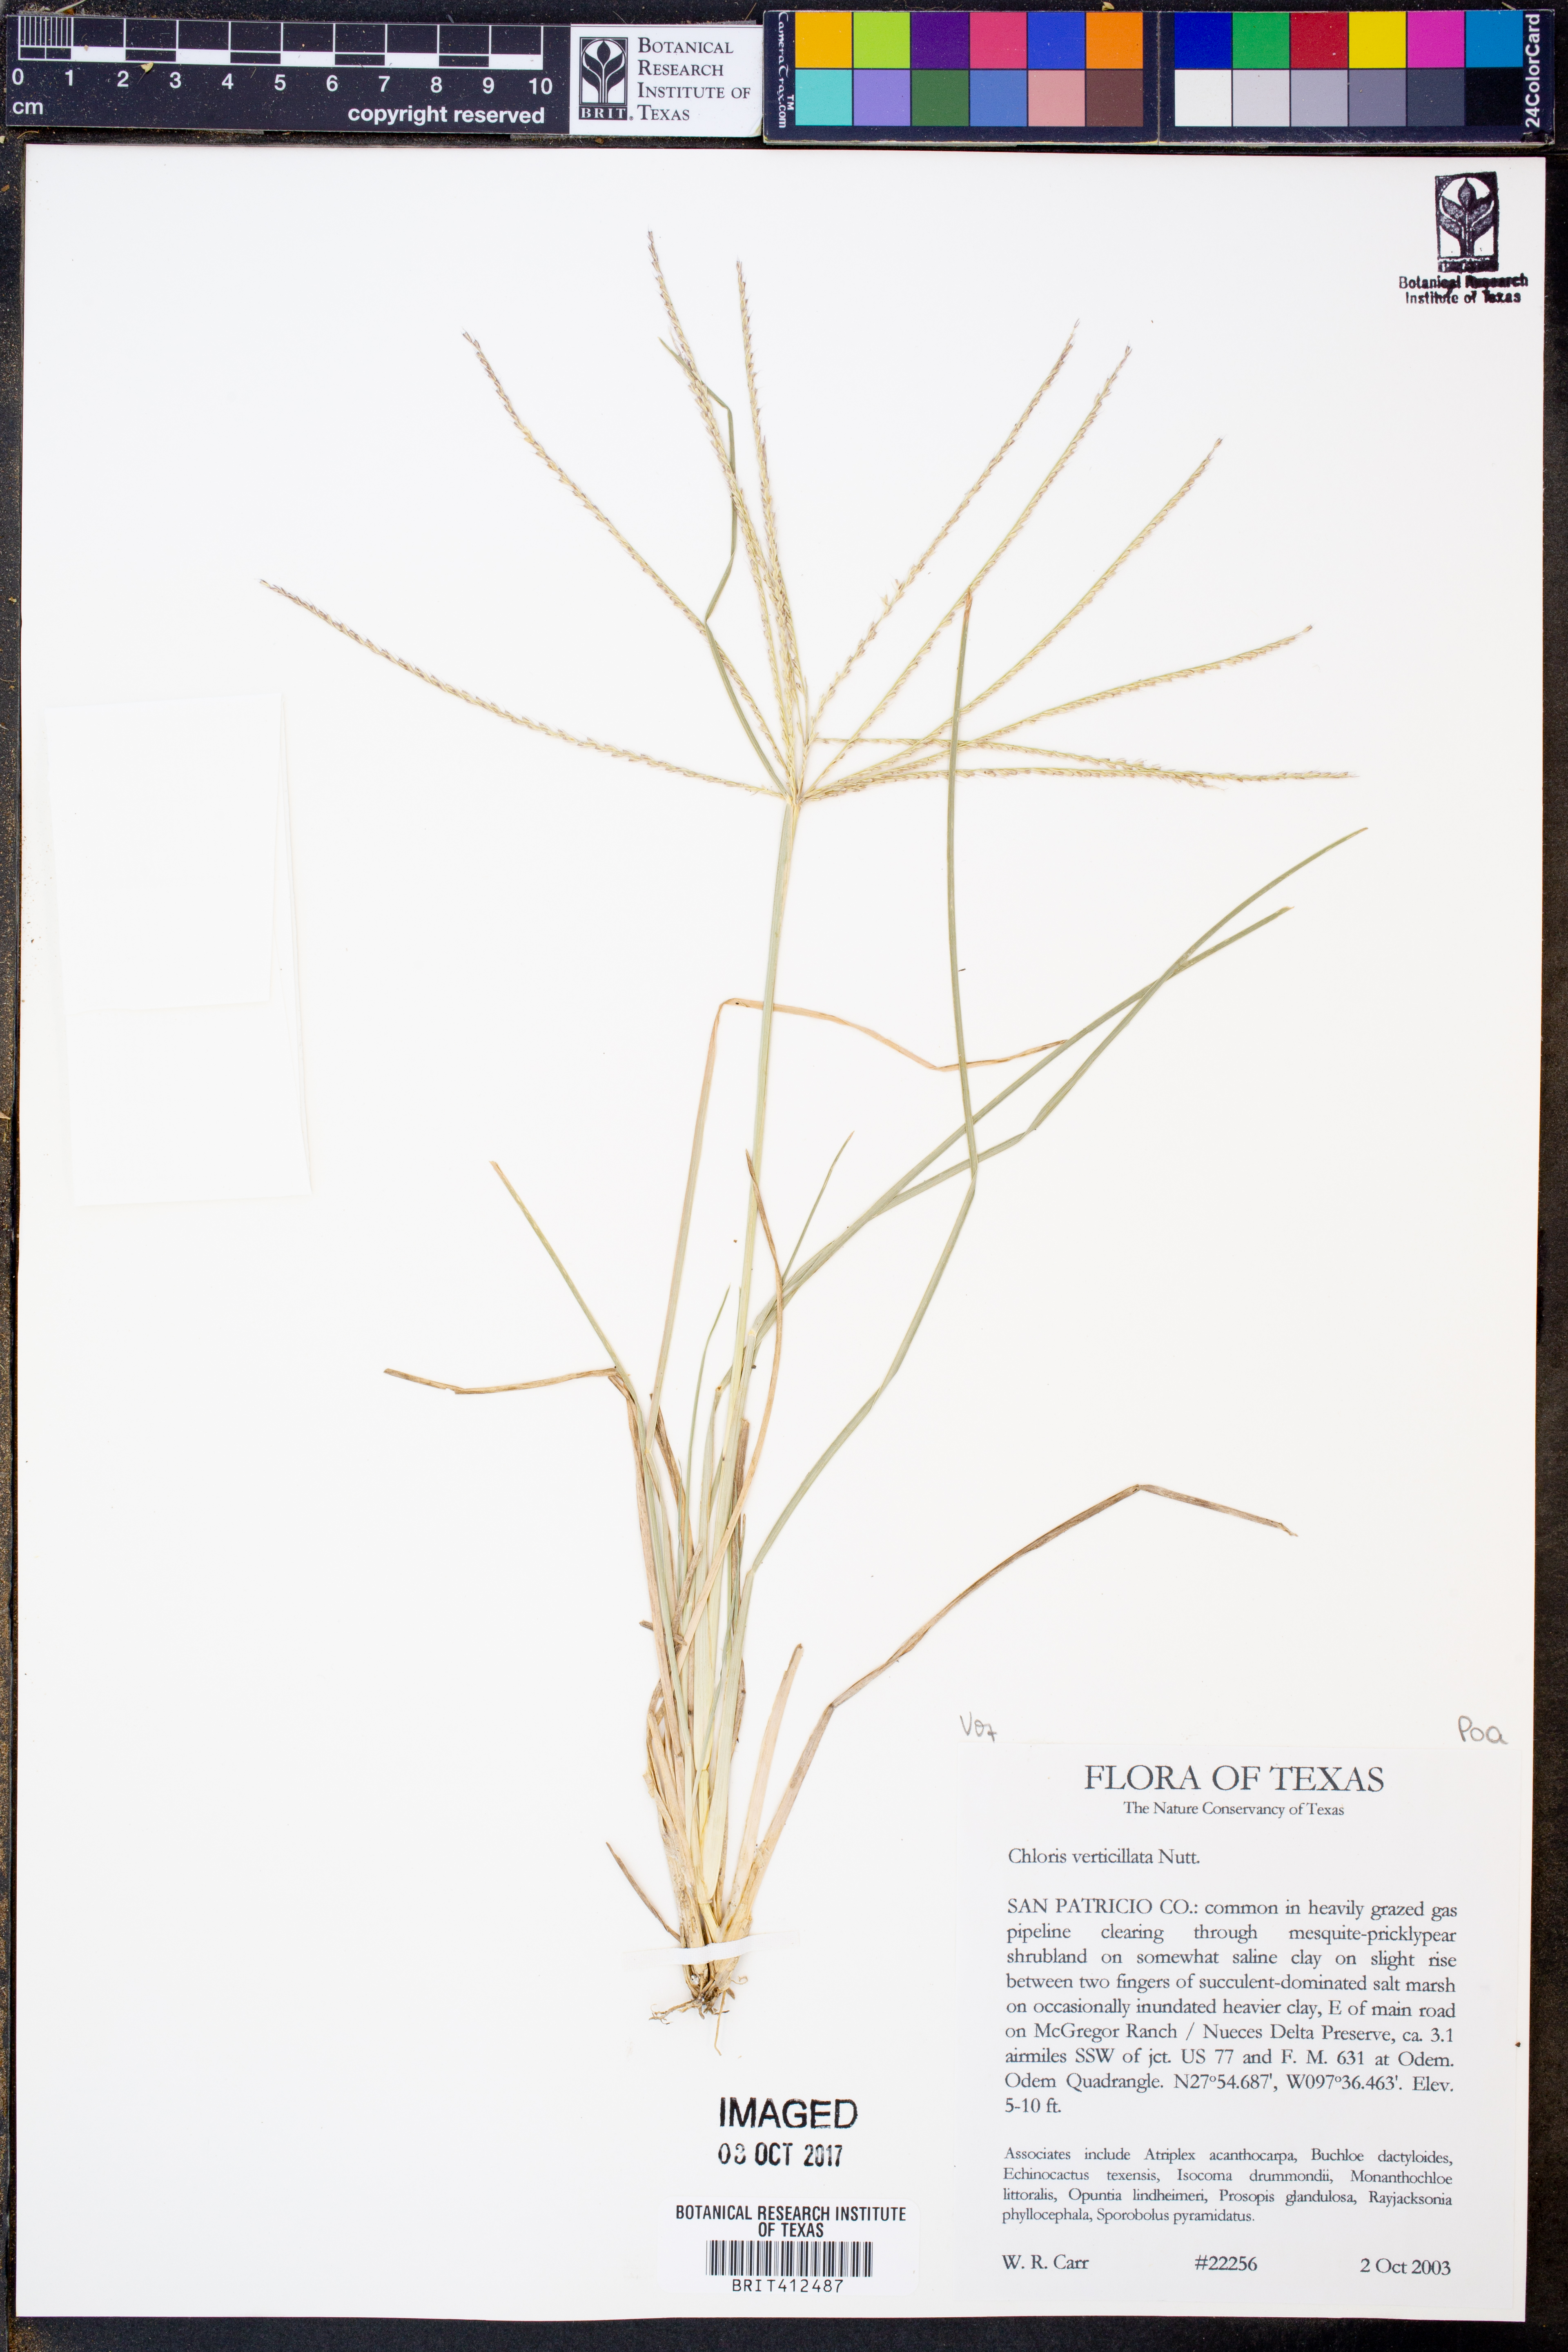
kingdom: Plantae
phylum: Tracheophyta
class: Liliopsida
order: Poales
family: Poaceae
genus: Chloris
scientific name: Chloris verticillata
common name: Tumble windmill grass
